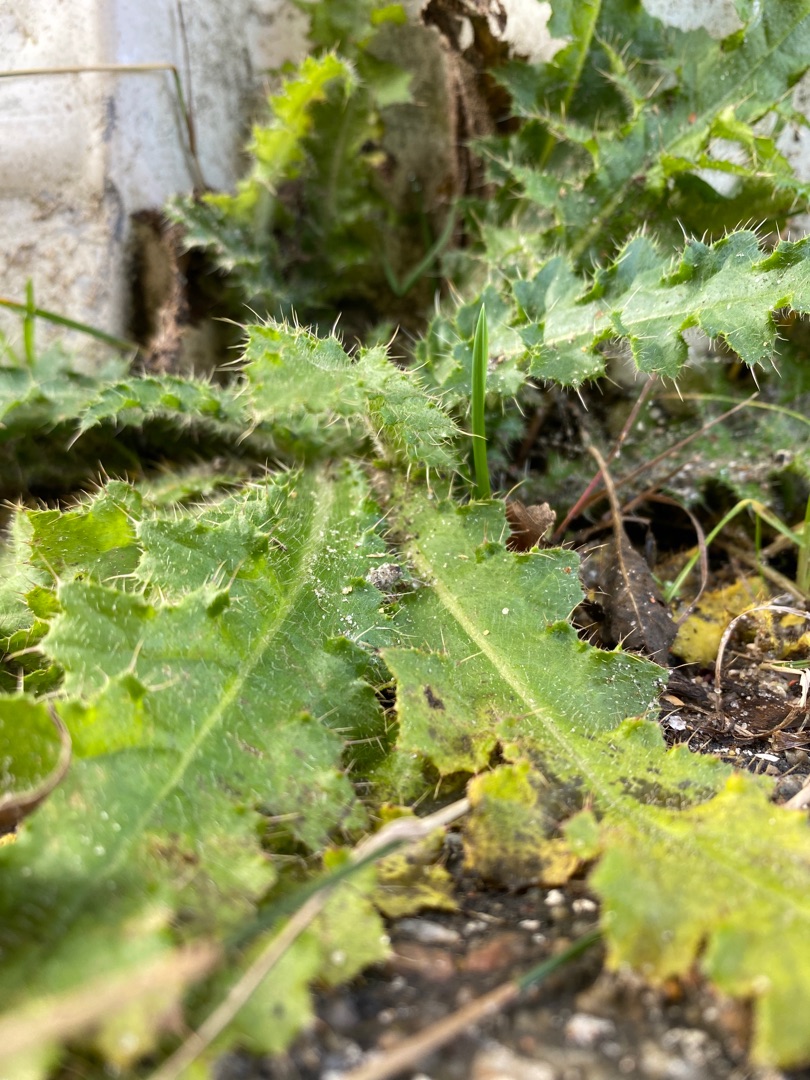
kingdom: Plantae
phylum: Tracheophyta
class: Magnoliopsida
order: Asterales
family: Asteraceae
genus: Cirsium
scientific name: Cirsium palustre
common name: Kær-tidsel
